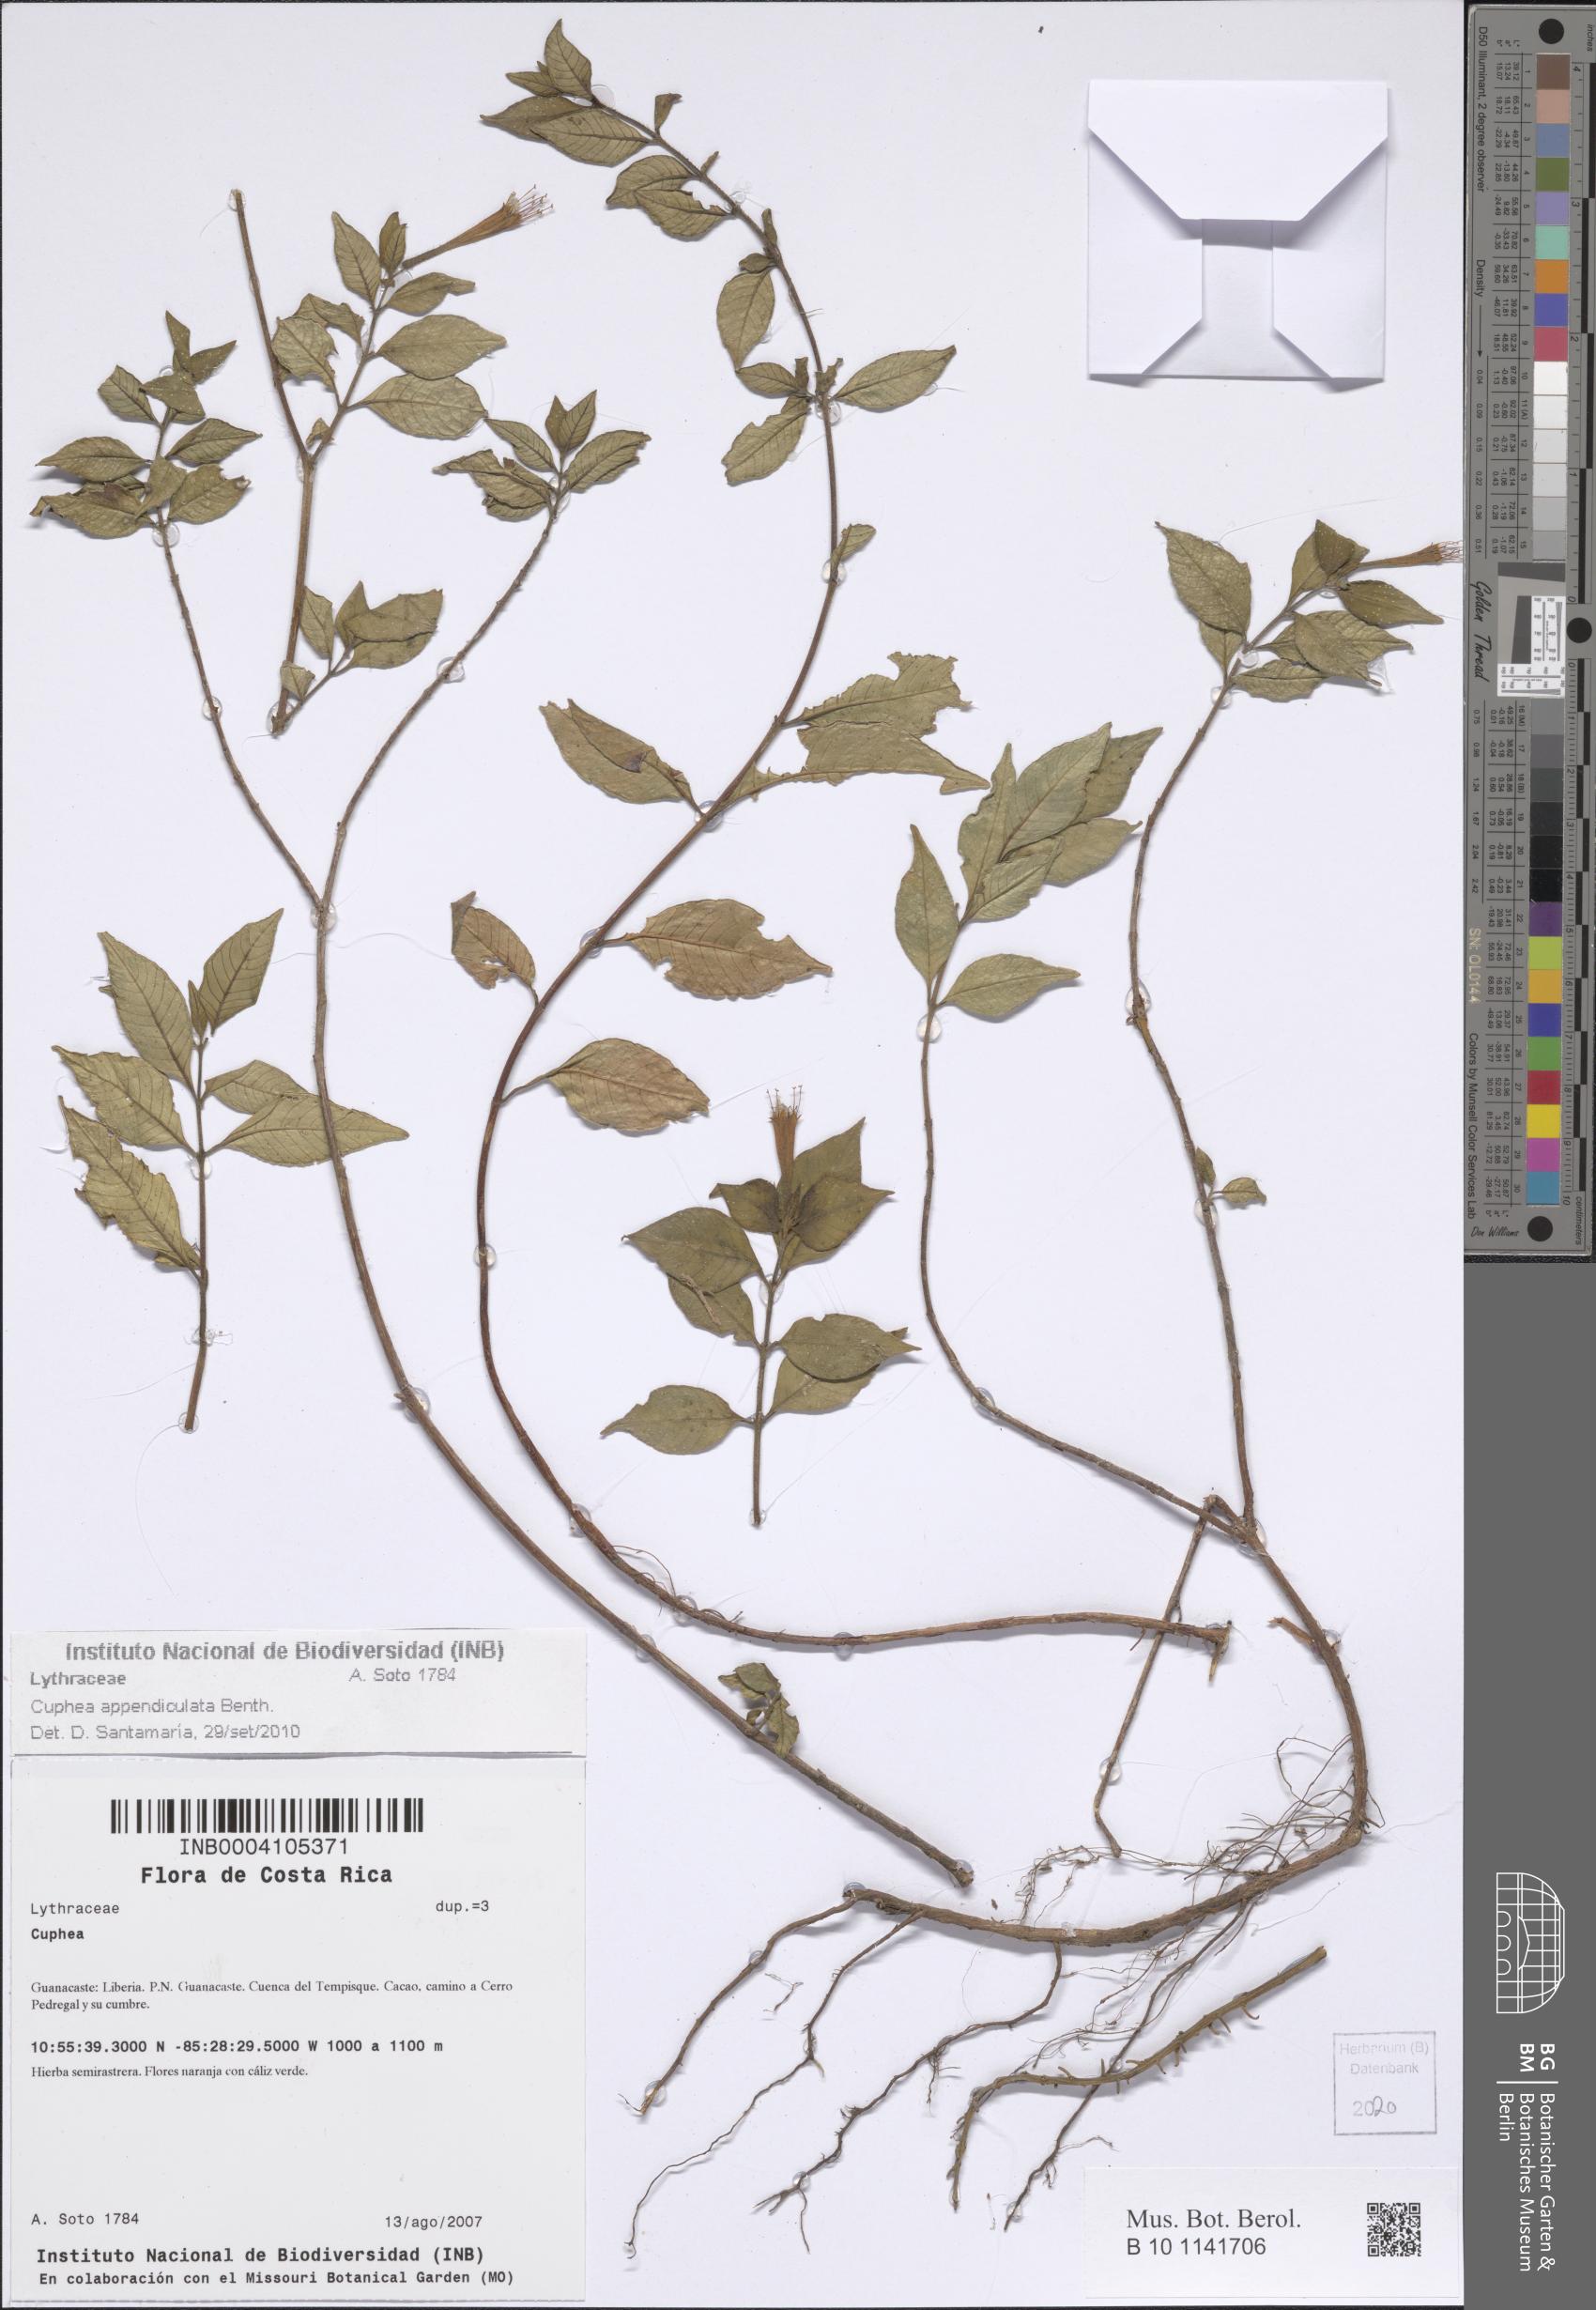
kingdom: Plantae
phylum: Tracheophyta
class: Magnoliopsida
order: Myrtales
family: Lythraceae
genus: Cuphea
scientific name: Cuphea appendiculata
